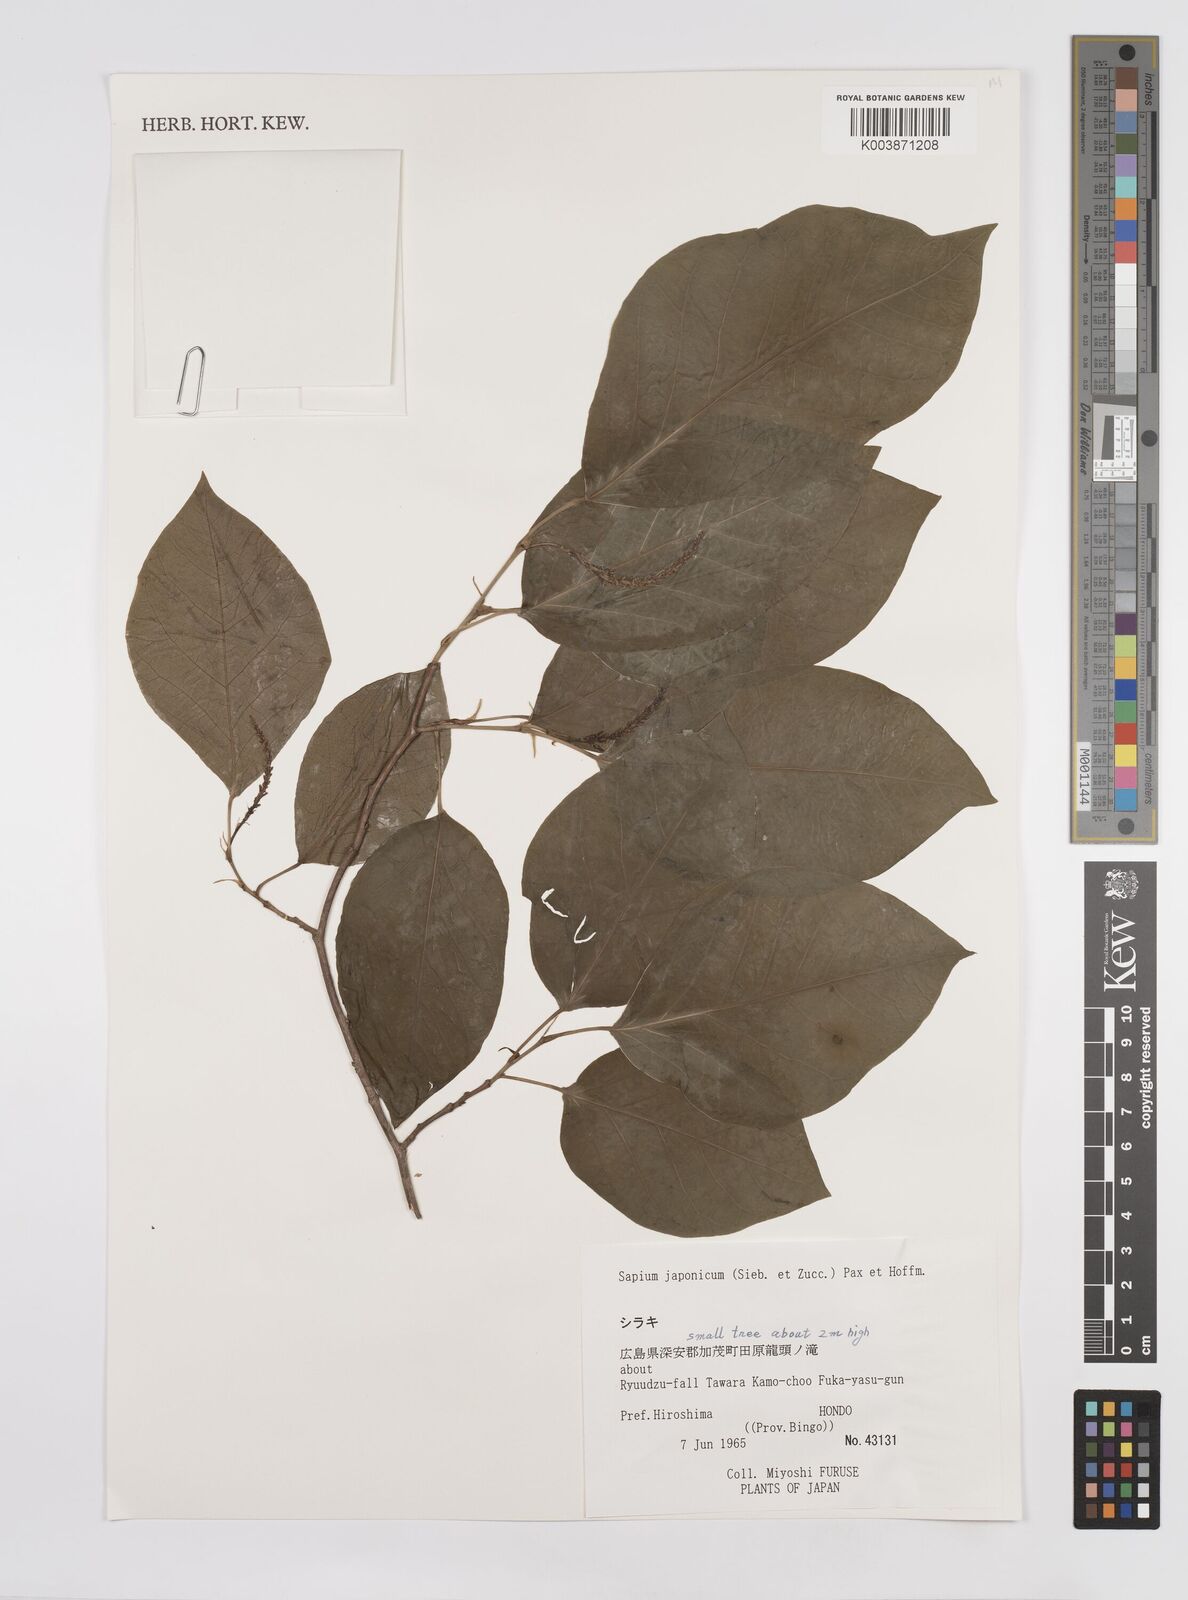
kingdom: Plantae
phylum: Tracheophyta
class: Magnoliopsida
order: Malpighiales
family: Euphorbiaceae
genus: Neoshirakia
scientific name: Neoshirakia japonica
